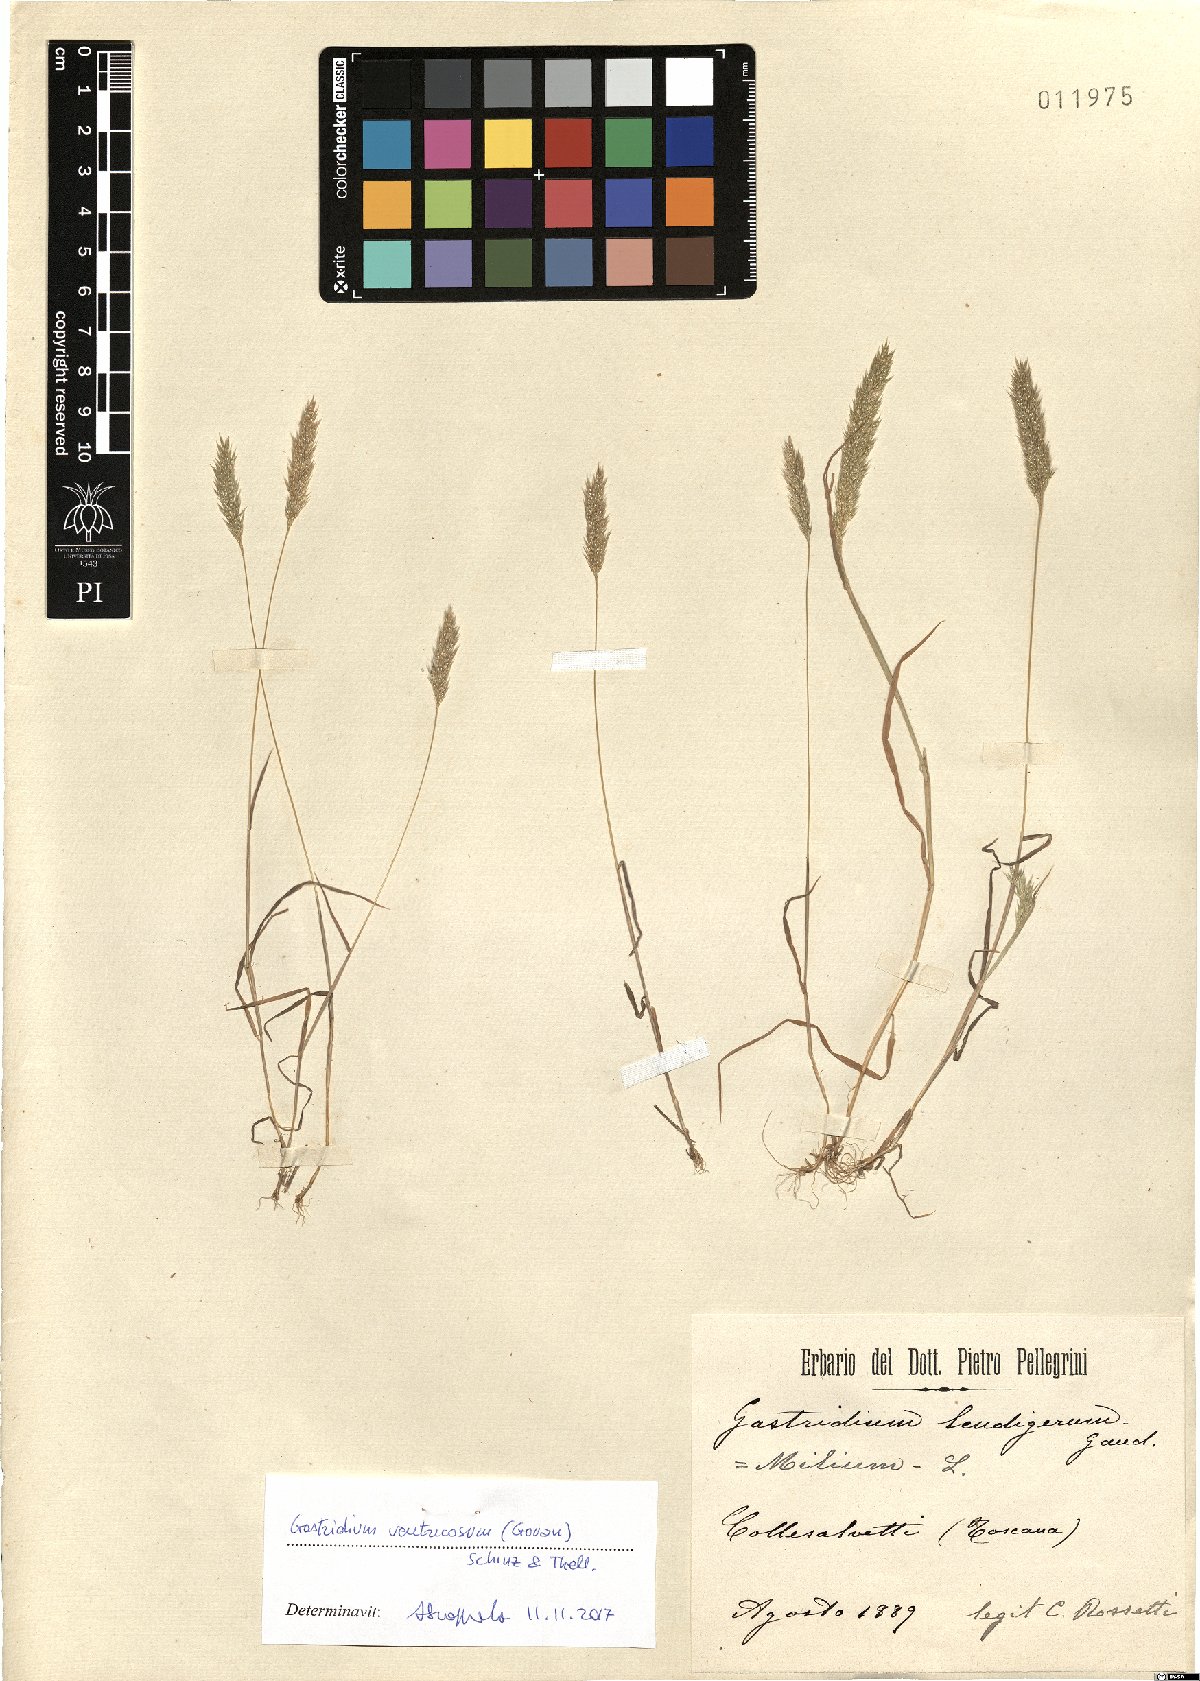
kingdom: Plantae
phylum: Tracheophyta
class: Liliopsida
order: Poales
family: Poaceae
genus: Gastridium
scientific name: Gastridium ventricosum
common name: Nit-grass
